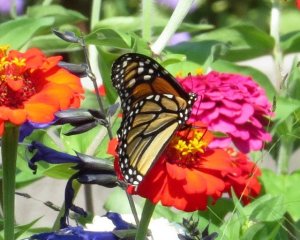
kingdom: Animalia
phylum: Arthropoda
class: Insecta
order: Lepidoptera
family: Nymphalidae
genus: Danaus
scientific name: Danaus plexippus
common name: Monarch
